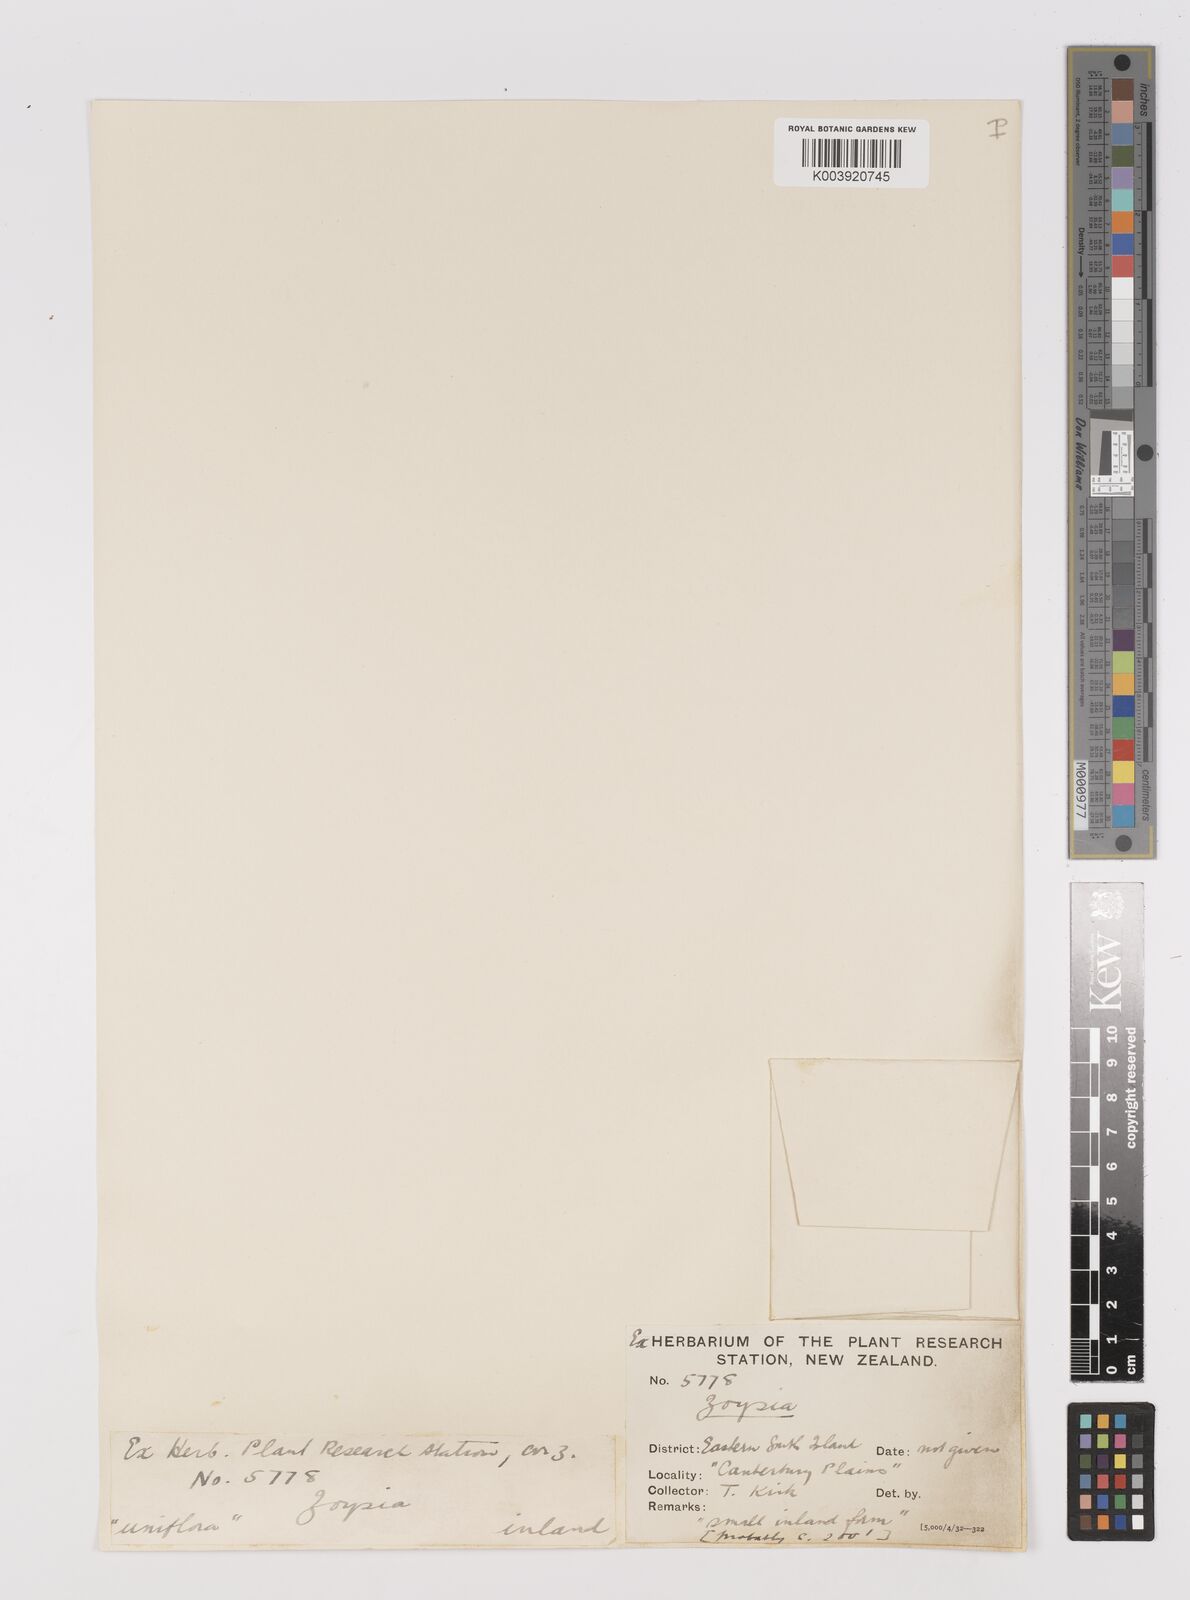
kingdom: Plantae
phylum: Tracheophyta
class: Liliopsida
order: Poales
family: Poaceae
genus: Zoysia
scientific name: Zoysia minima
